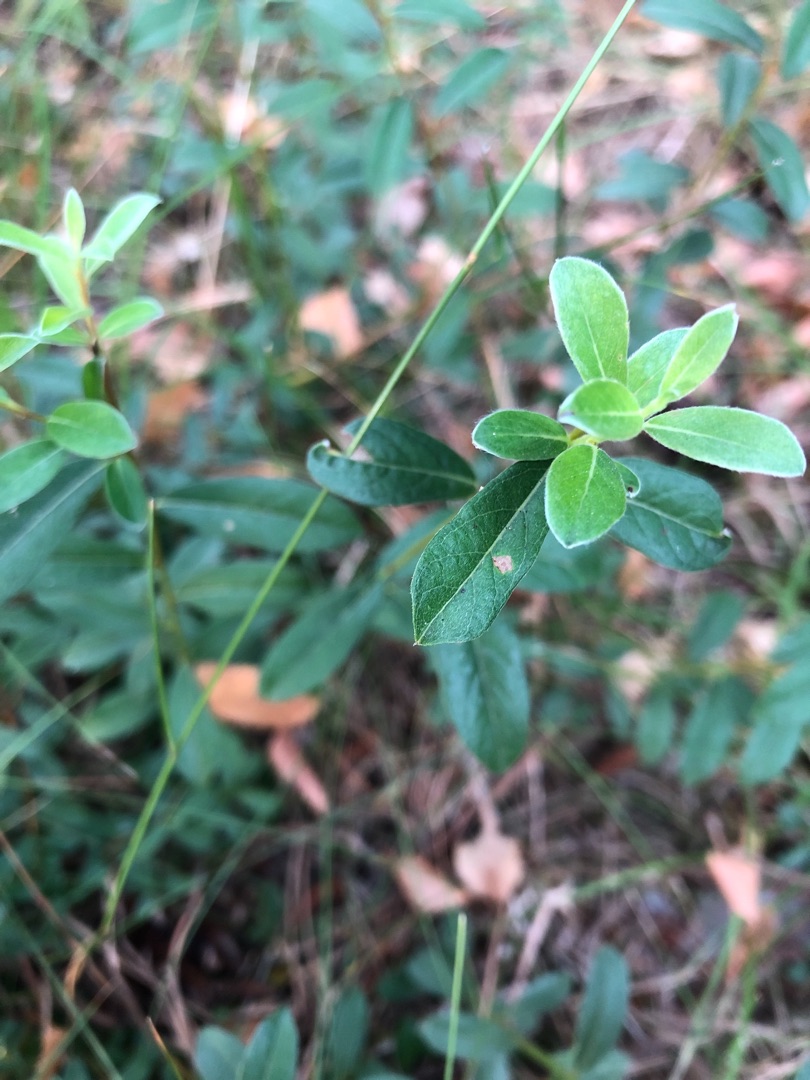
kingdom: Plantae
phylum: Tracheophyta
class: Magnoliopsida
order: Malpighiales
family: Salicaceae
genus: Salix
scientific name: Salix repens
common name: Krybende pil
